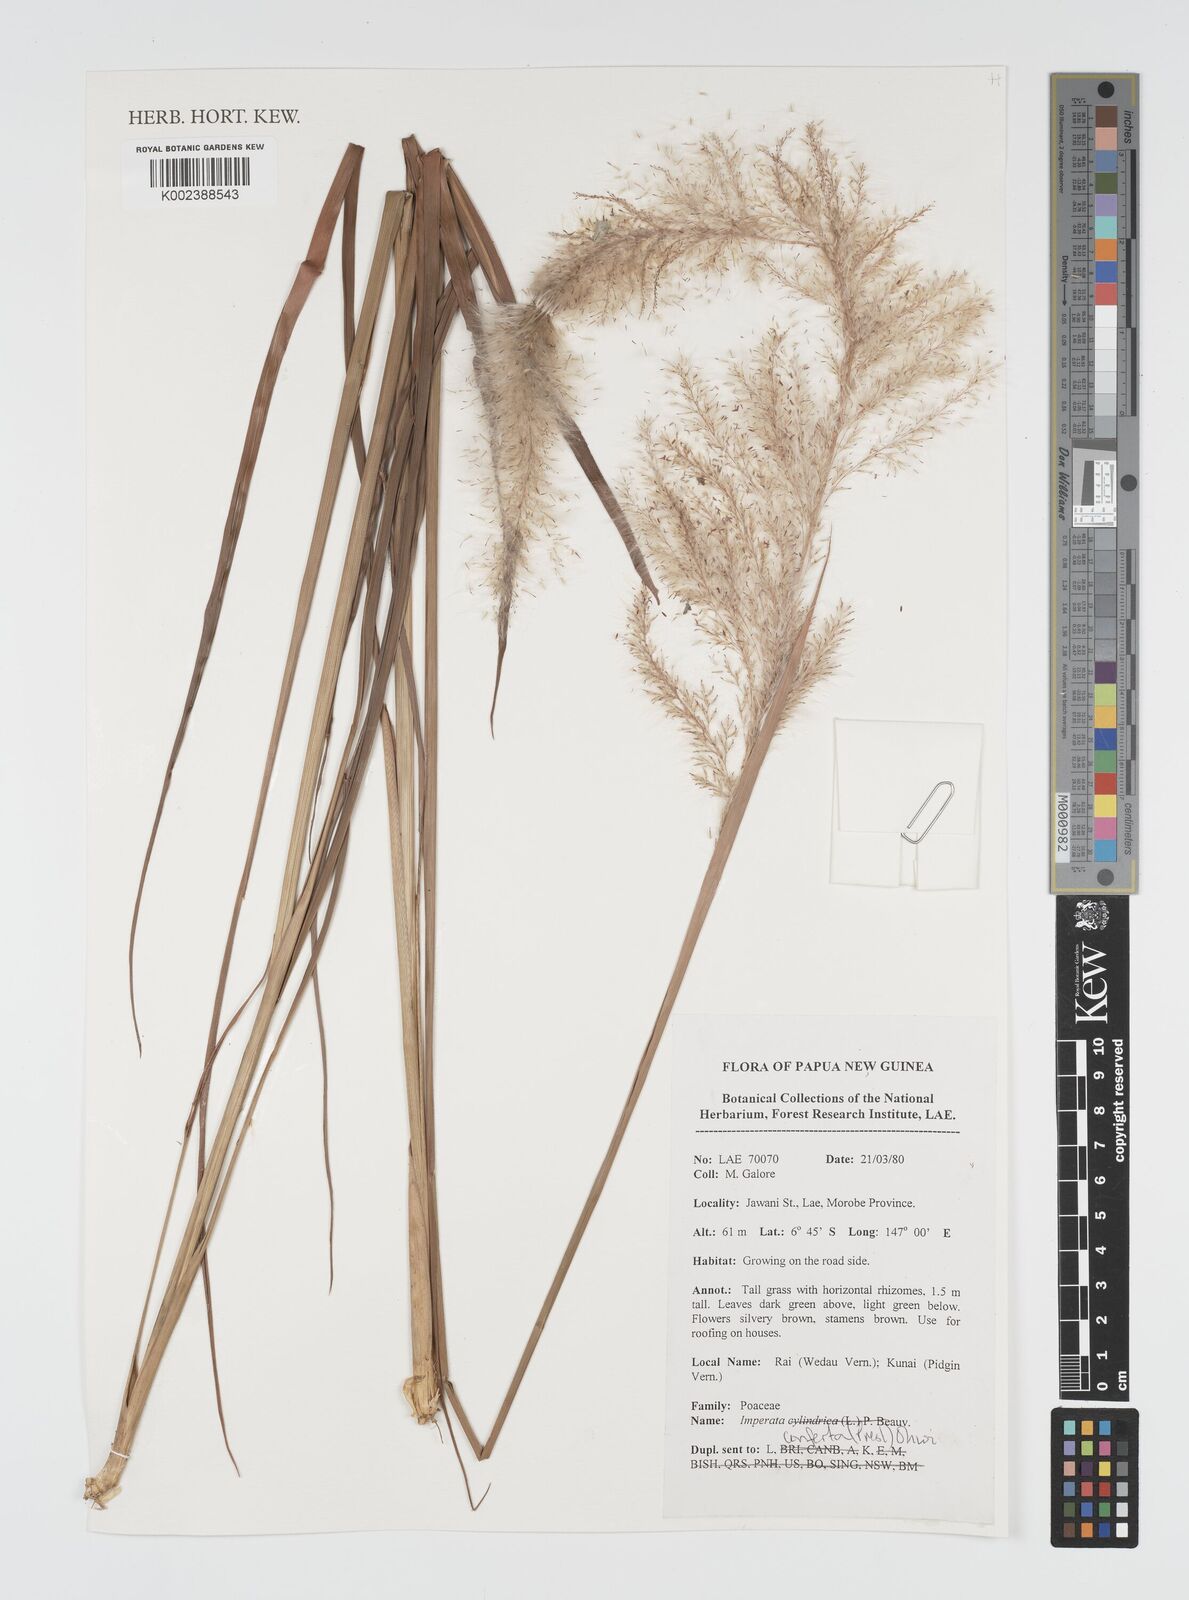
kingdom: Plantae
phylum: Tracheophyta
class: Liliopsida
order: Poales
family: Poaceae
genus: Imperata
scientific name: Imperata conferta
